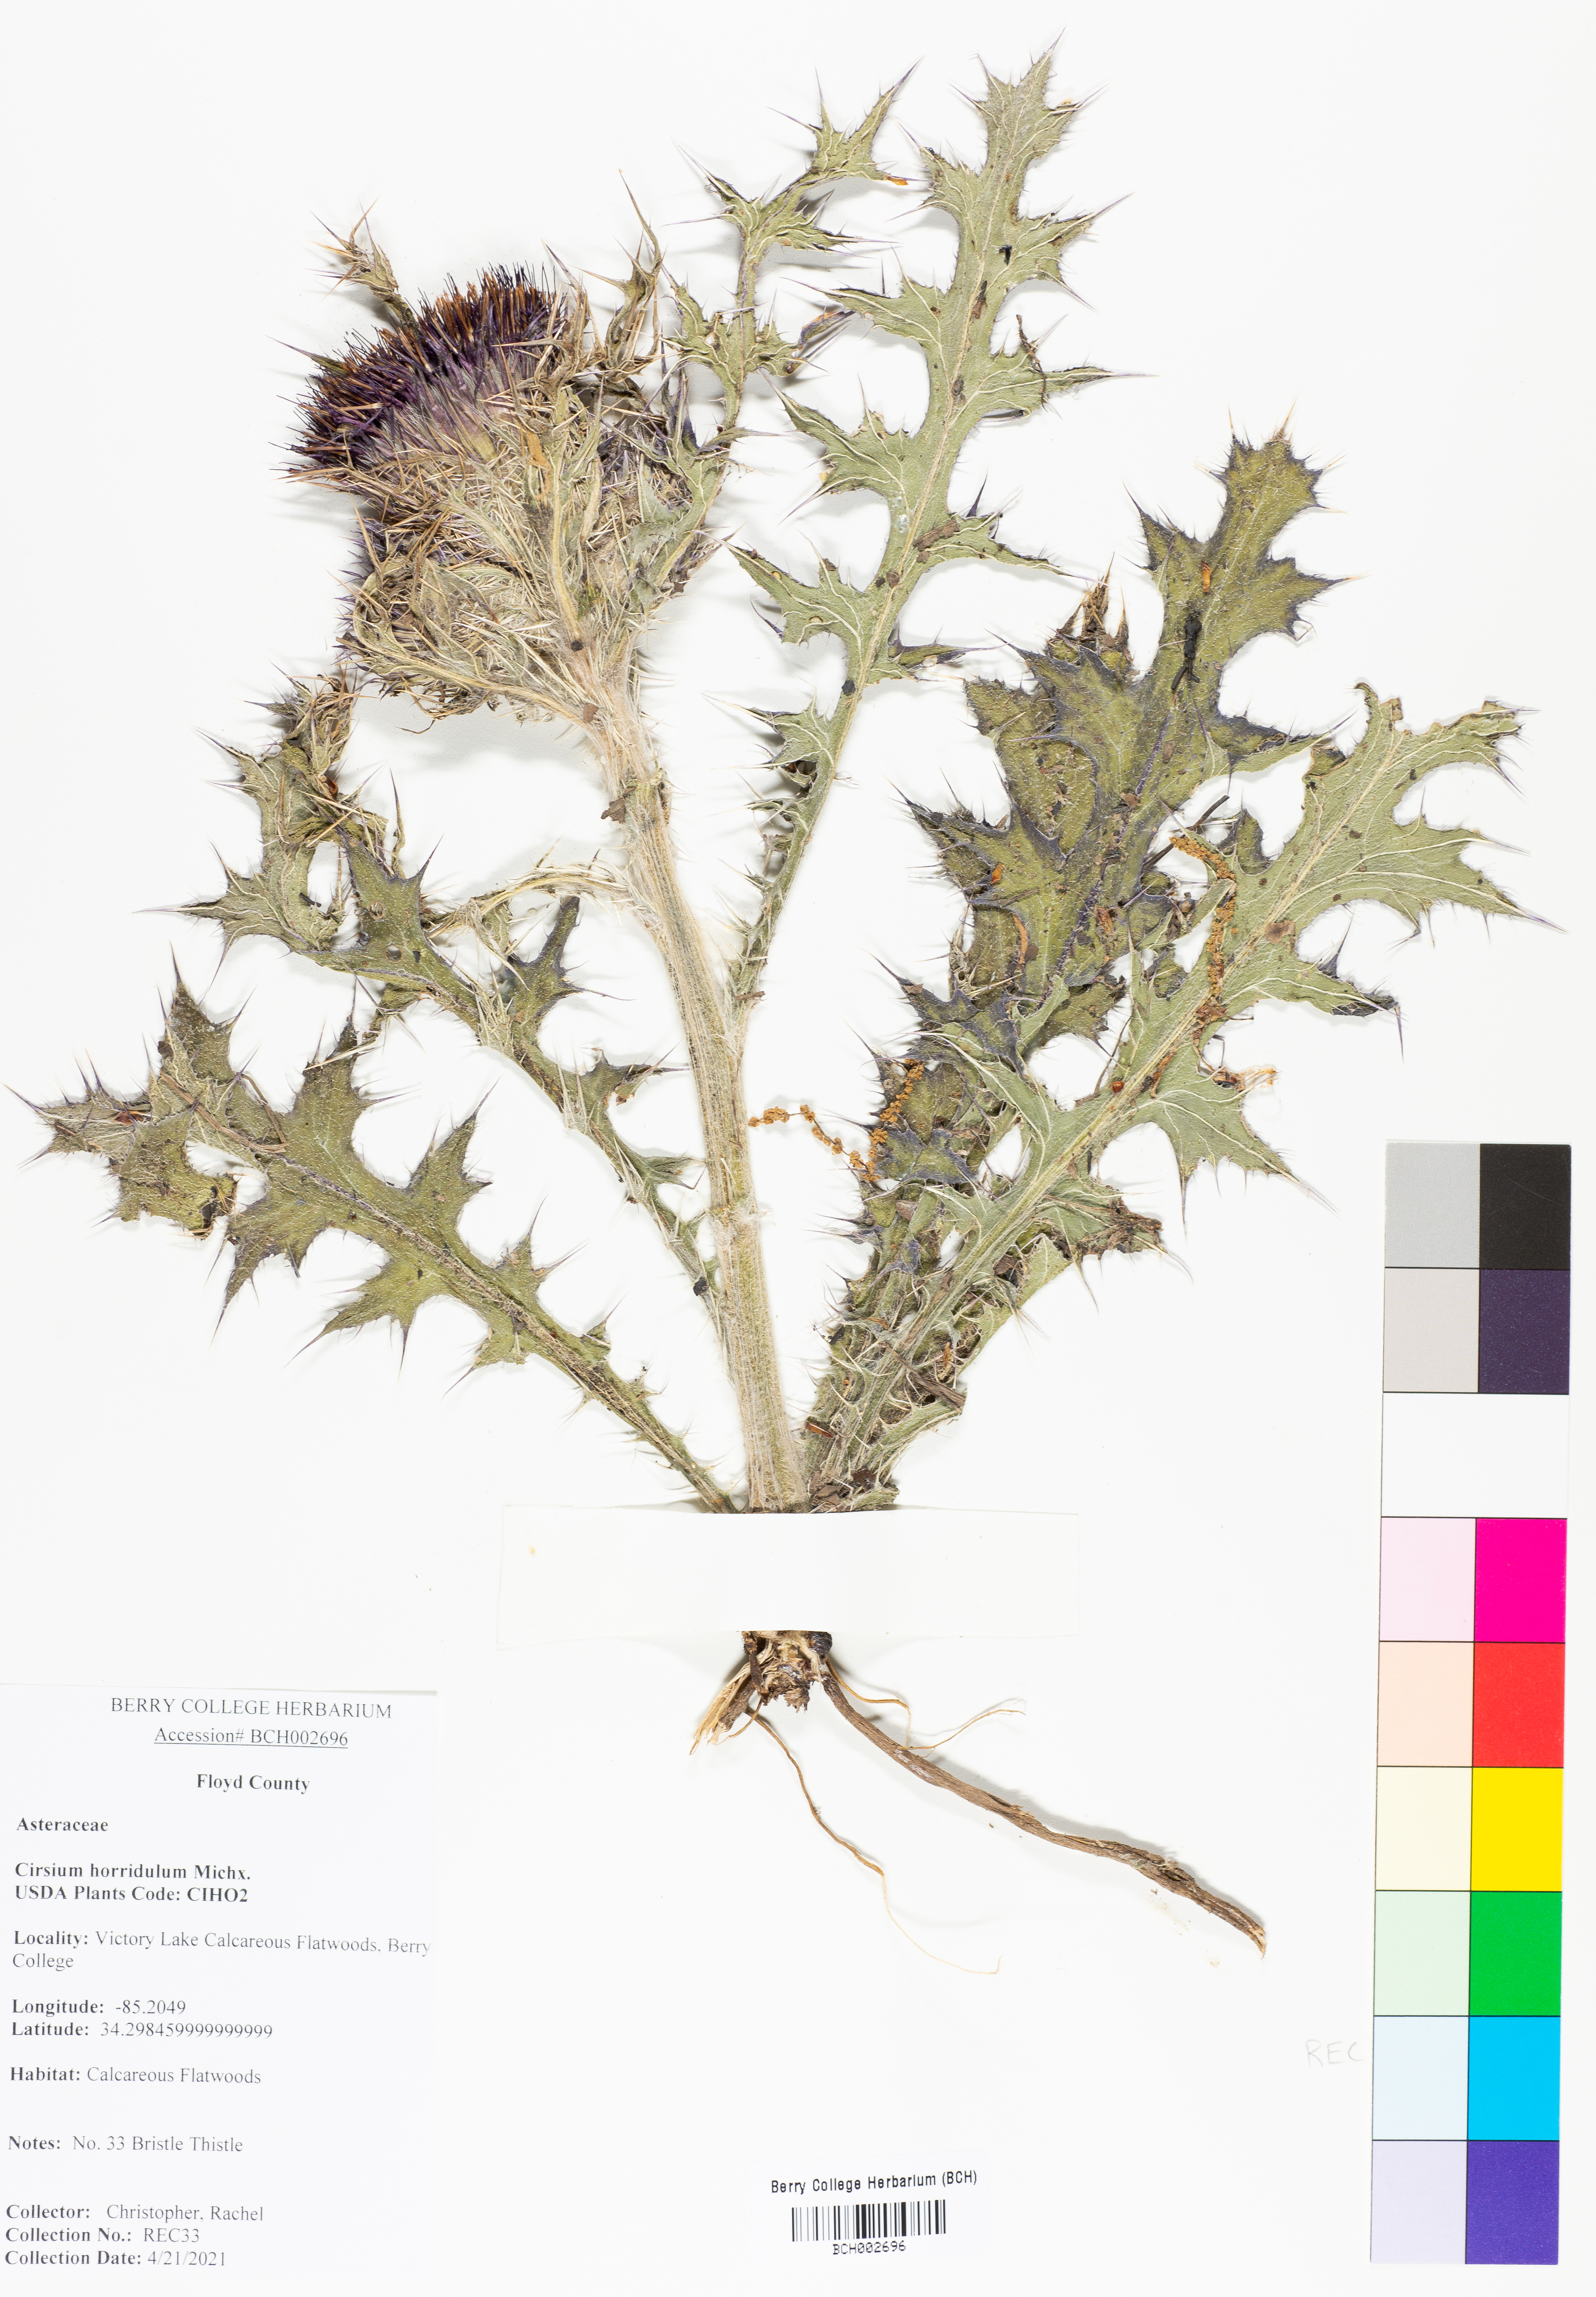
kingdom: Plantae
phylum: Tracheophyta
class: Magnoliopsida
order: Asterales
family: Asteraceae
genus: Cirsium
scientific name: Cirsium horridulum
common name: Bristly thistle
